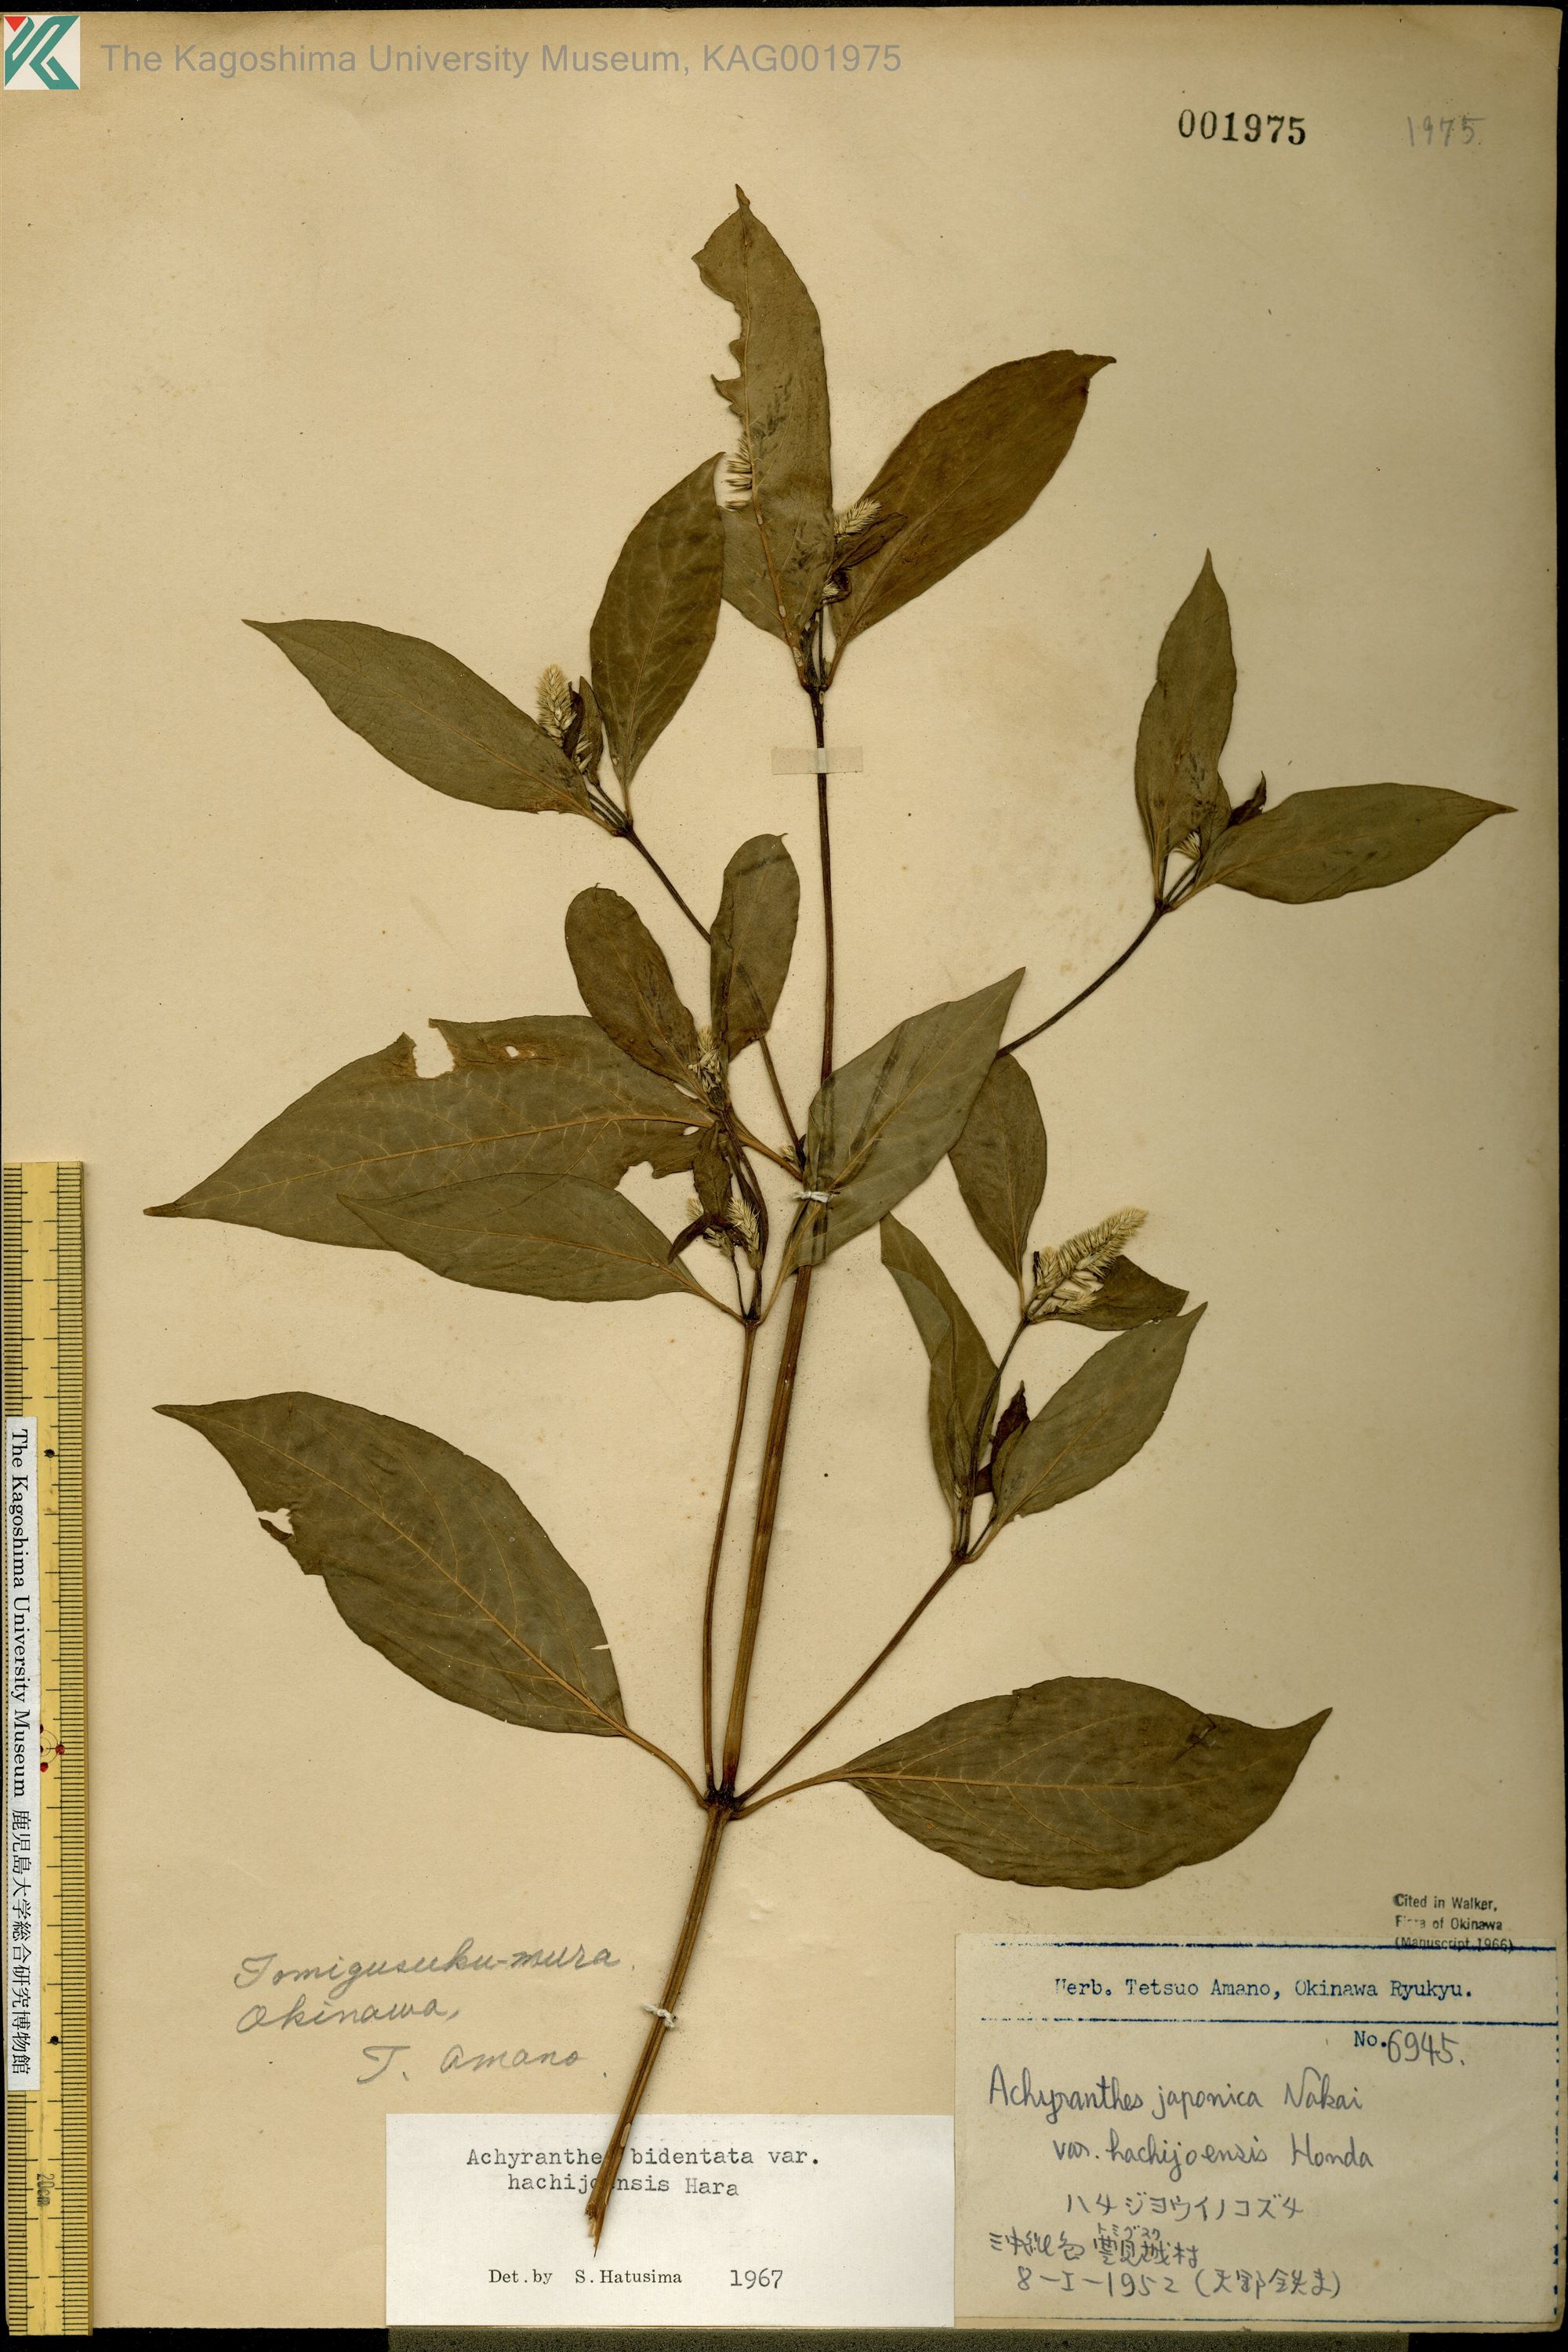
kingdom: Plantae
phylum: Tracheophyta
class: Magnoliopsida
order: Caryophyllales
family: Amaranthaceae
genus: Achyranthes
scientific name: Achyranthes bidentata
